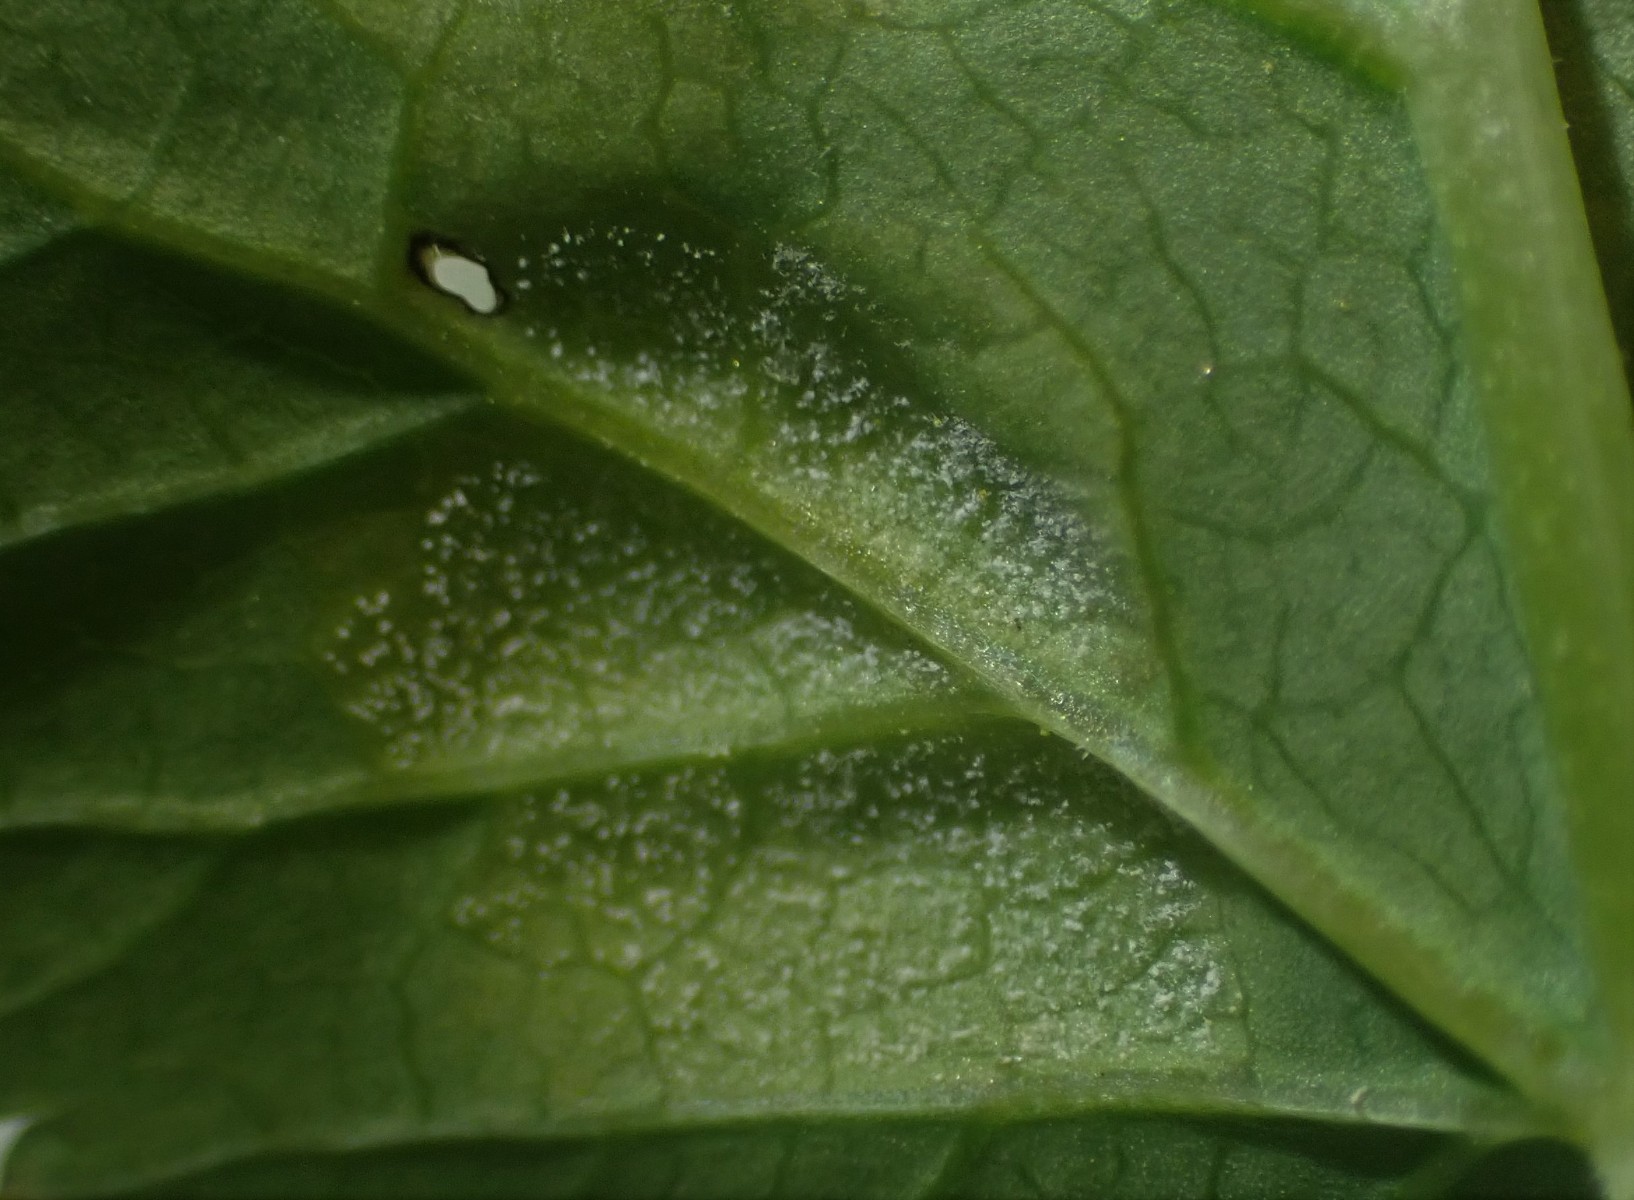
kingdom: Chromista
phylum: Oomycota
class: Peronosporea
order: Peronosporales
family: Peronosporaceae
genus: Peronospora
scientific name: Peronospora crustosa
